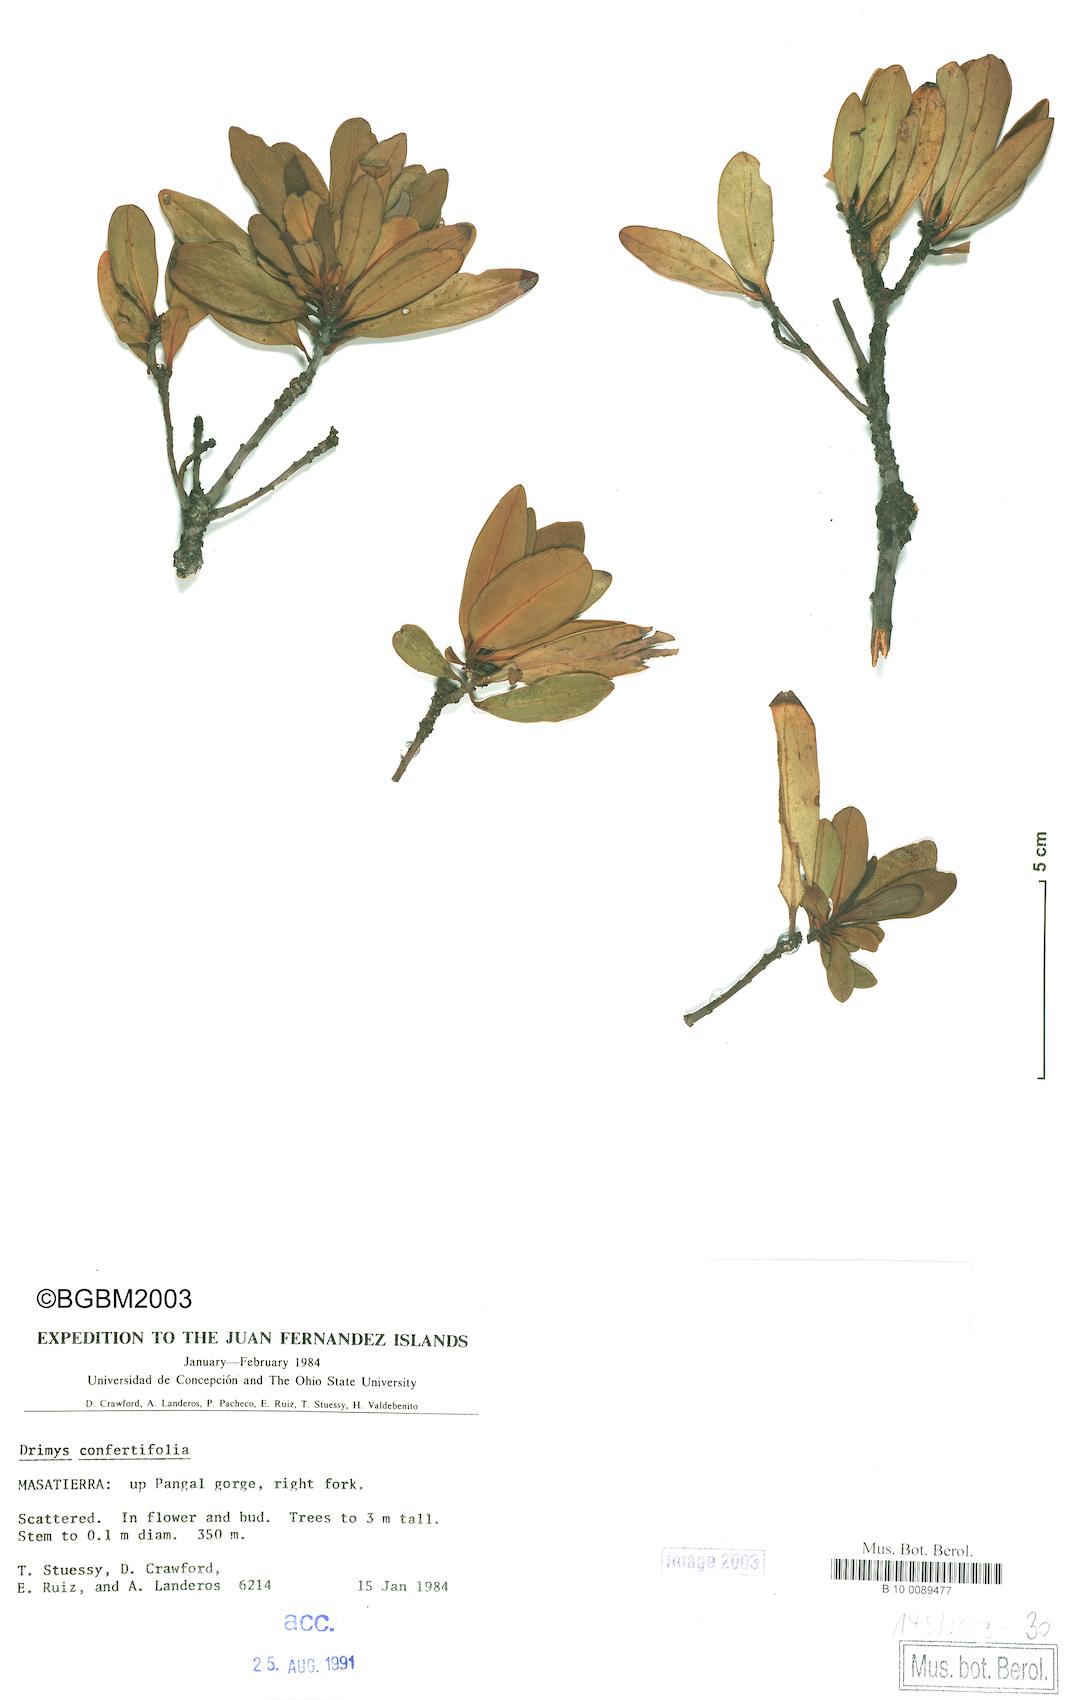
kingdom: Plantae
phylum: Tracheophyta
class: Magnoliopsida
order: Canellales
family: Winteraceae
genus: Drimys
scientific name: Drimys confertiflora
